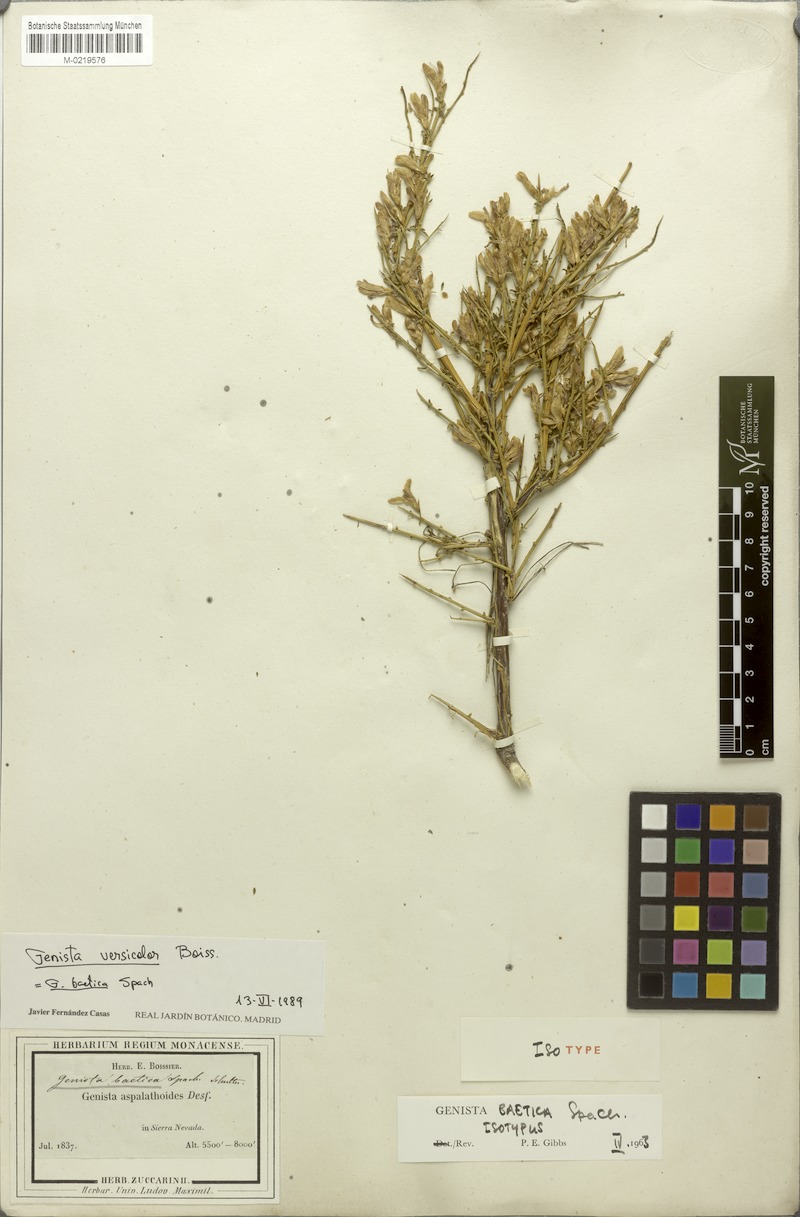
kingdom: Plantae
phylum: Tracheophyta
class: Magnoliopsida
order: Fabales
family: Fabaceae
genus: Genista
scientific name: Genista versicolor
